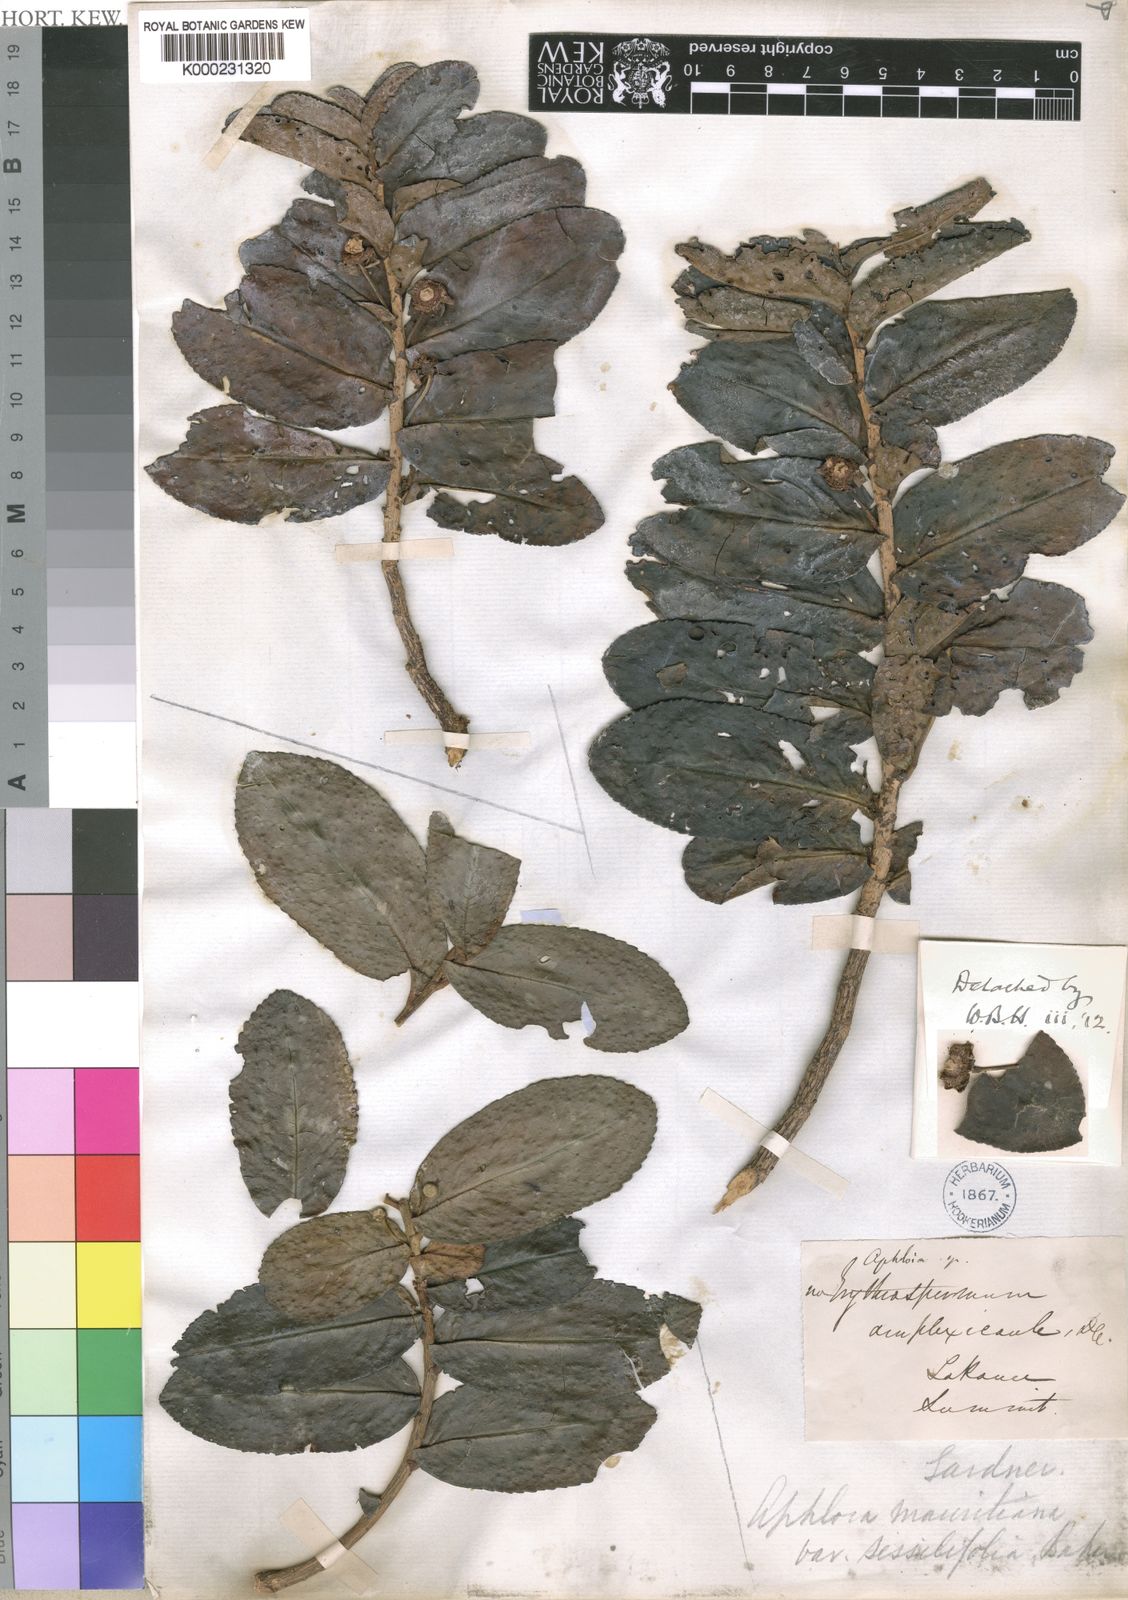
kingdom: Plantae
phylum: Tracheophyta
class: Magnoliopsida
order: Crossosomatales
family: Aphloiaceae
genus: Aphloia
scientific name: Aphloia theiformis
